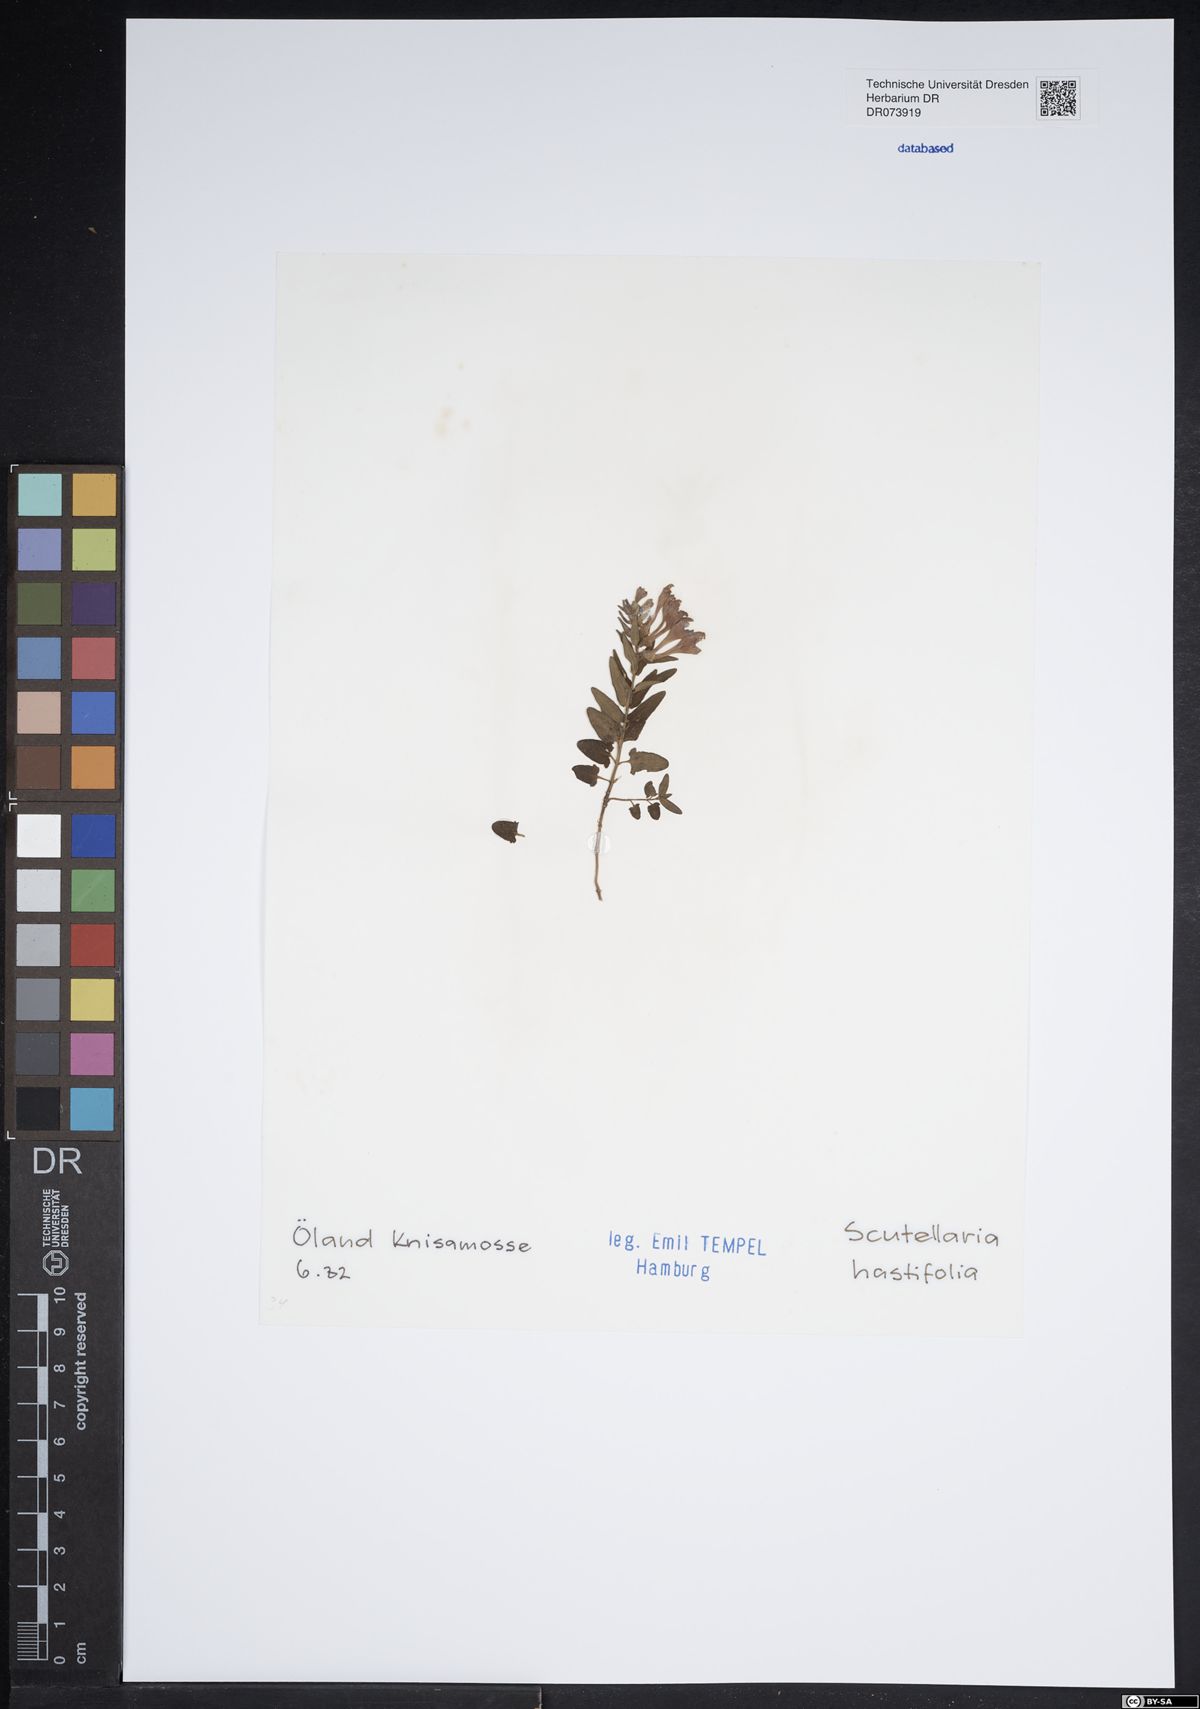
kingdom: Plantae
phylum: Tracheophyta
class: Magnoliopsida
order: Lamiales
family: Lamiaceae
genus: Scutellaria
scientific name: Scutellaria hastifolia
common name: Norfolk skullcap
